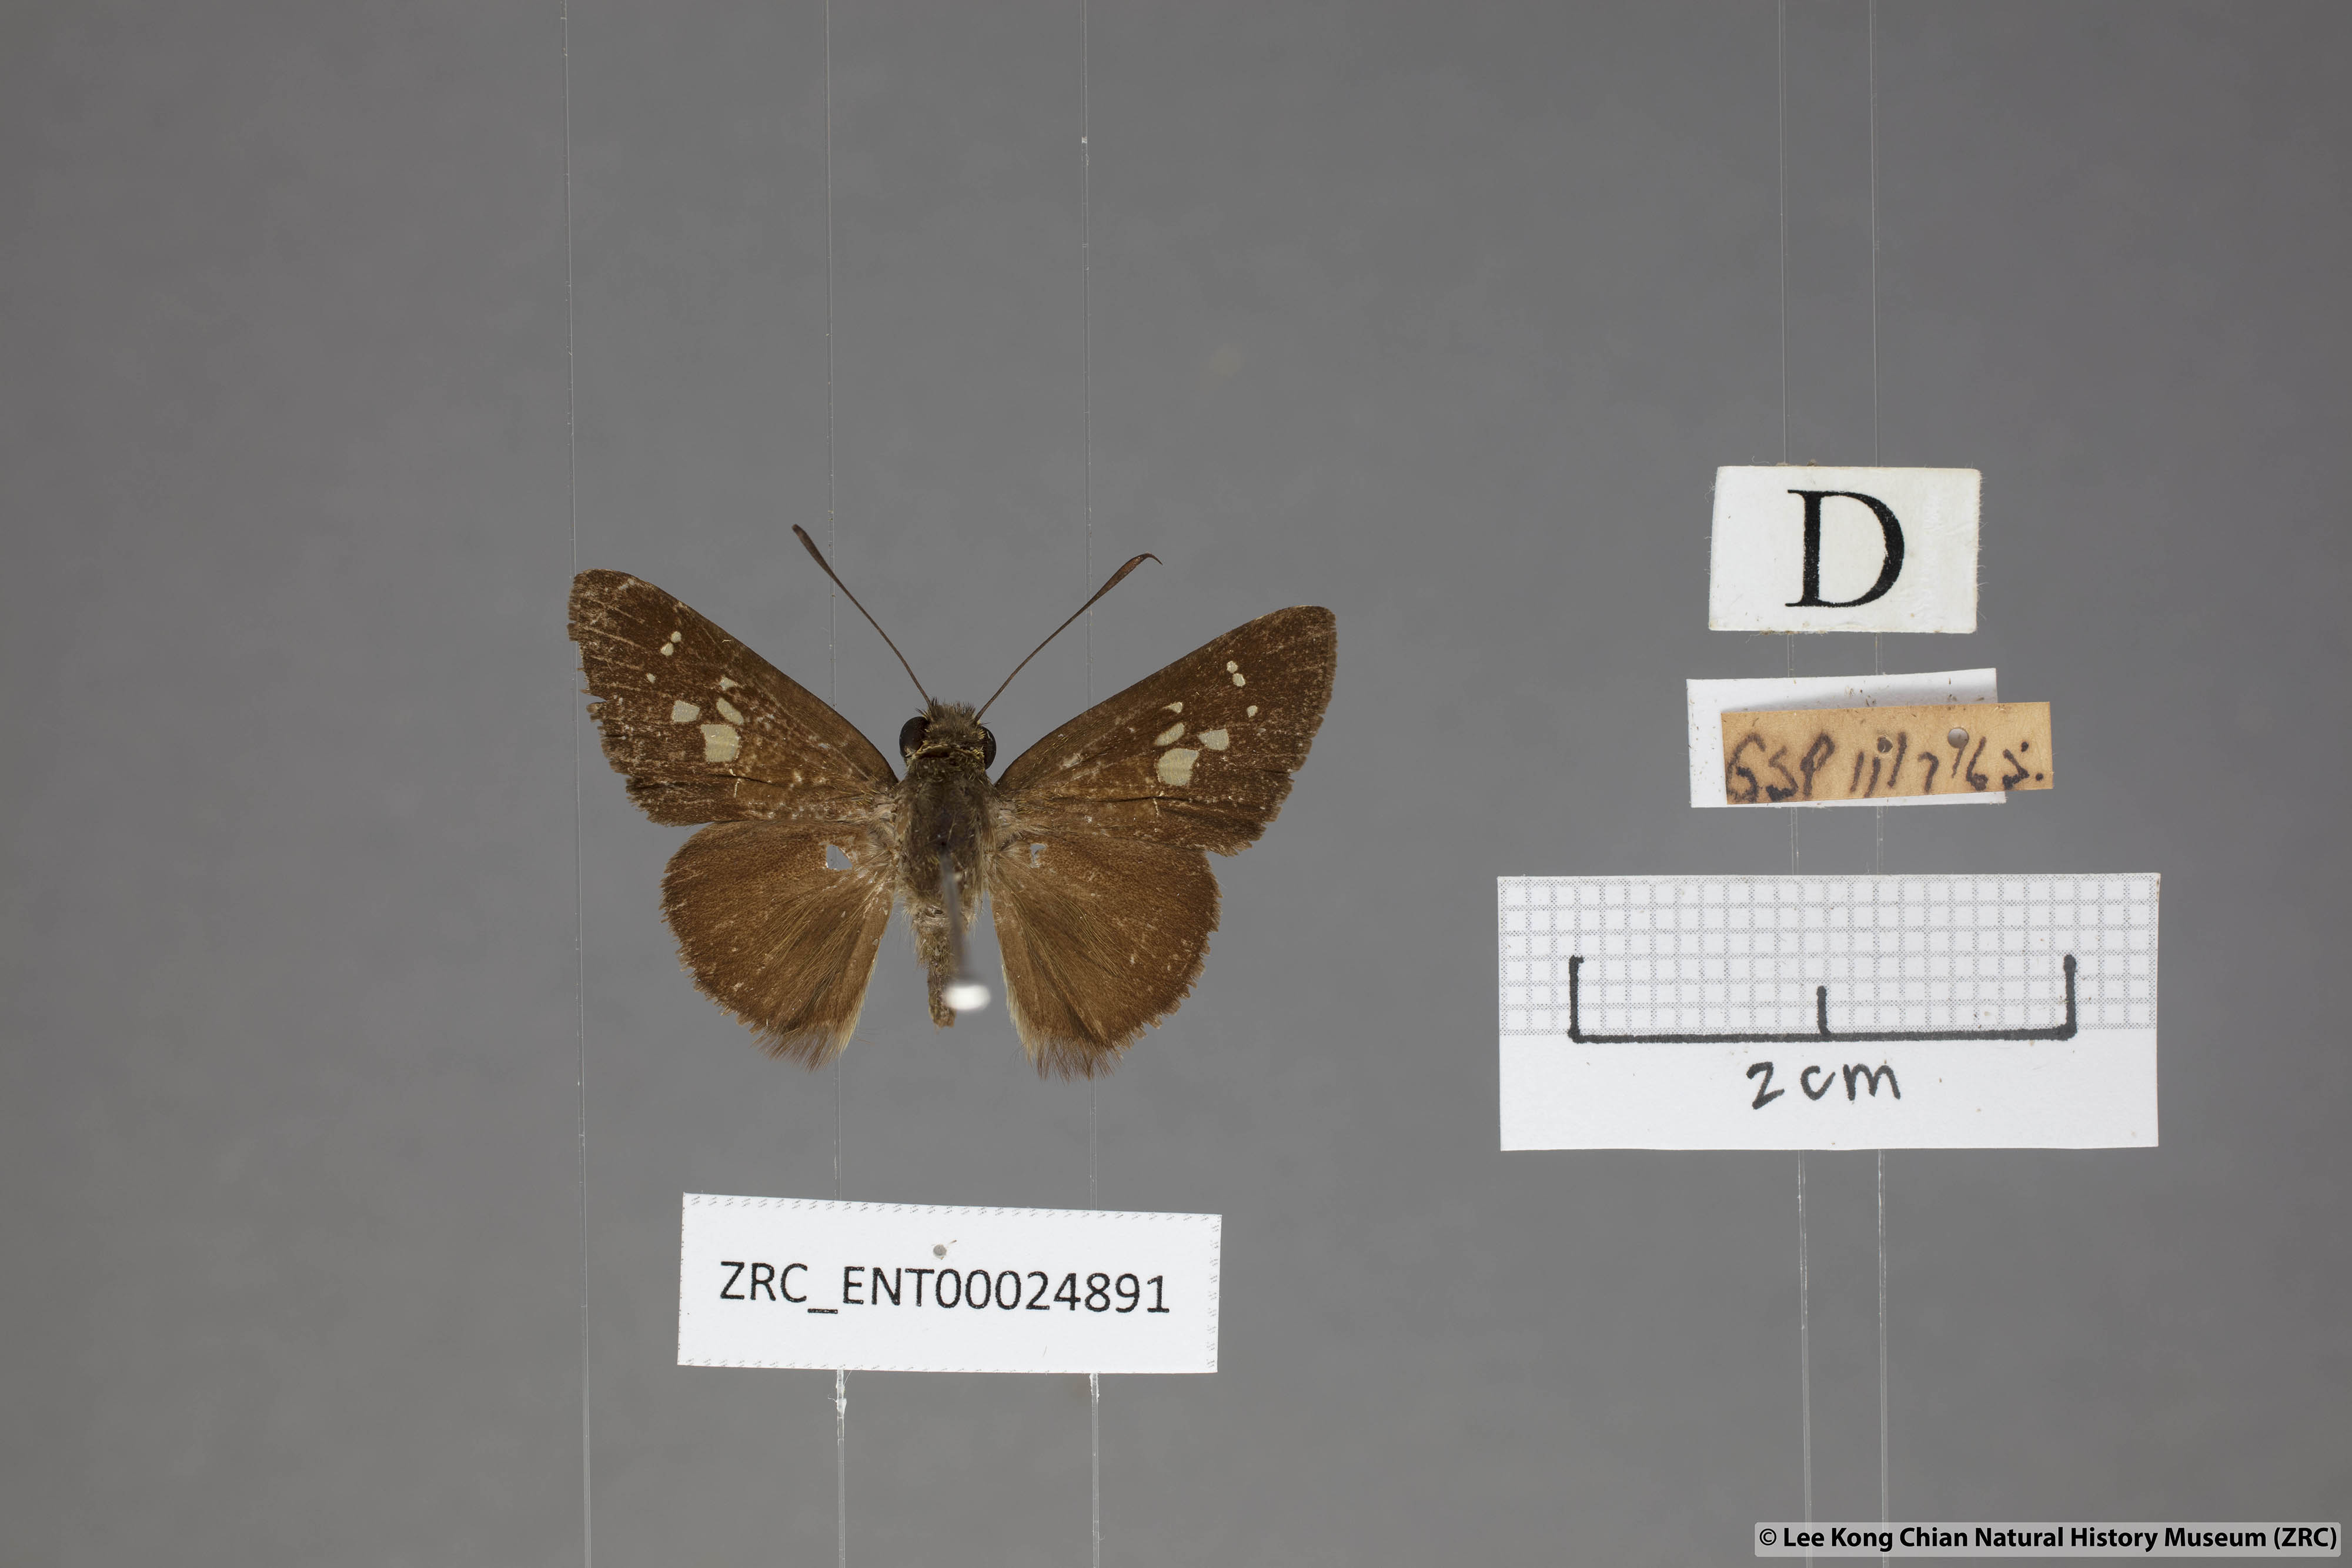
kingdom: Animalia
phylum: Arthropoda
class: Insecta
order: Lepidoptera
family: Hesperiidae
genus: Isma
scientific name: Isma
